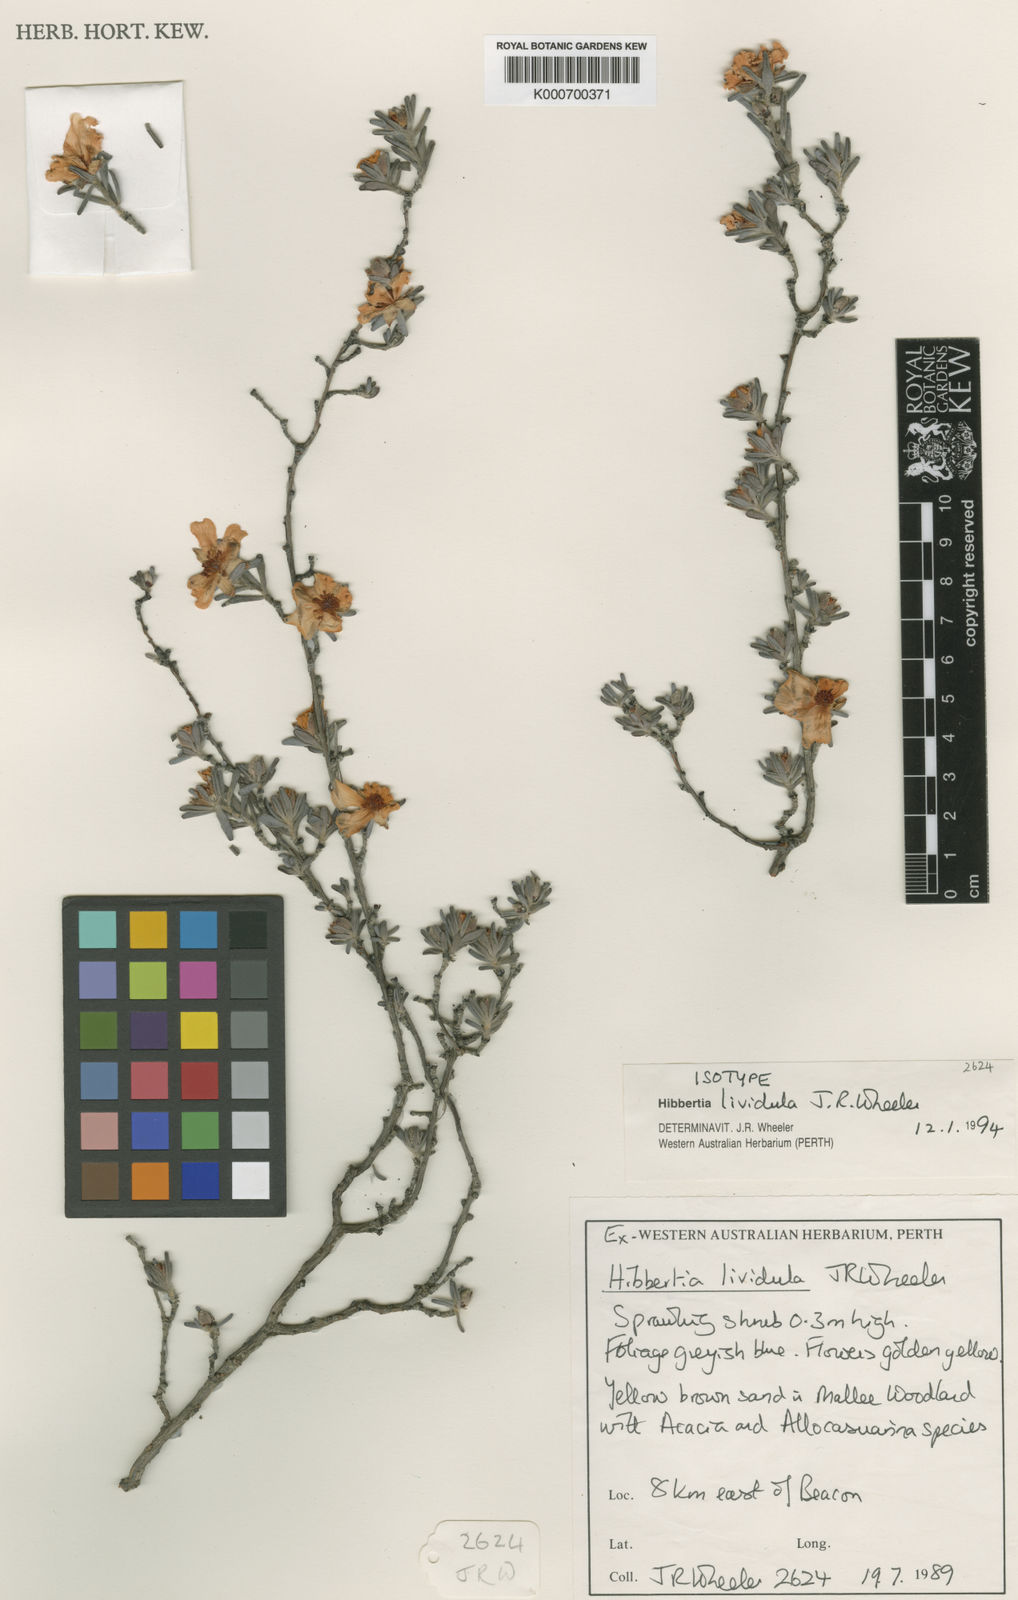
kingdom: Plantae
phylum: Tracheophyta
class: Magnoliopsida
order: Dilleniales
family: Dilleniaceae
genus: Hibbertia
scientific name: Hibbertia lividula
